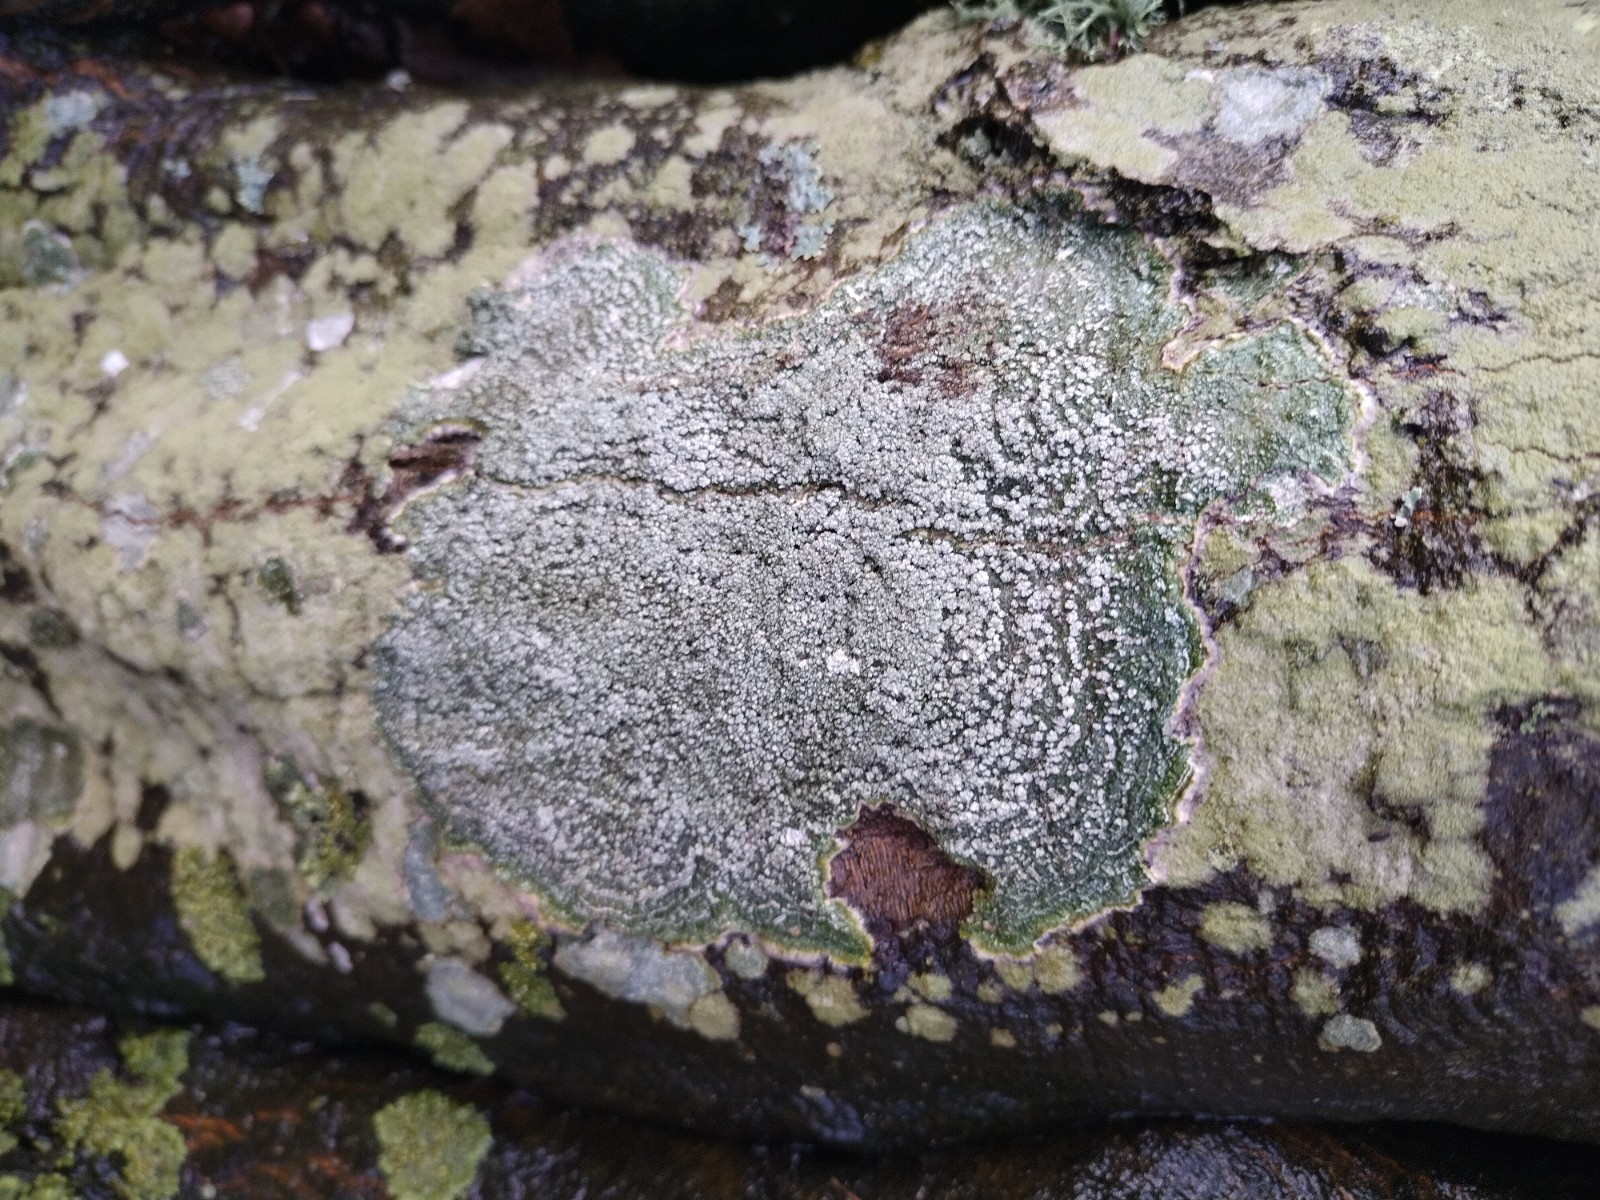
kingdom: Fungi
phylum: Ascomycota
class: Lecanoromycetes
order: Pertusariales
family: Pertusariaceae
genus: Lepra
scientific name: Lepra albescens
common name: hvidmelet prikvortelav
